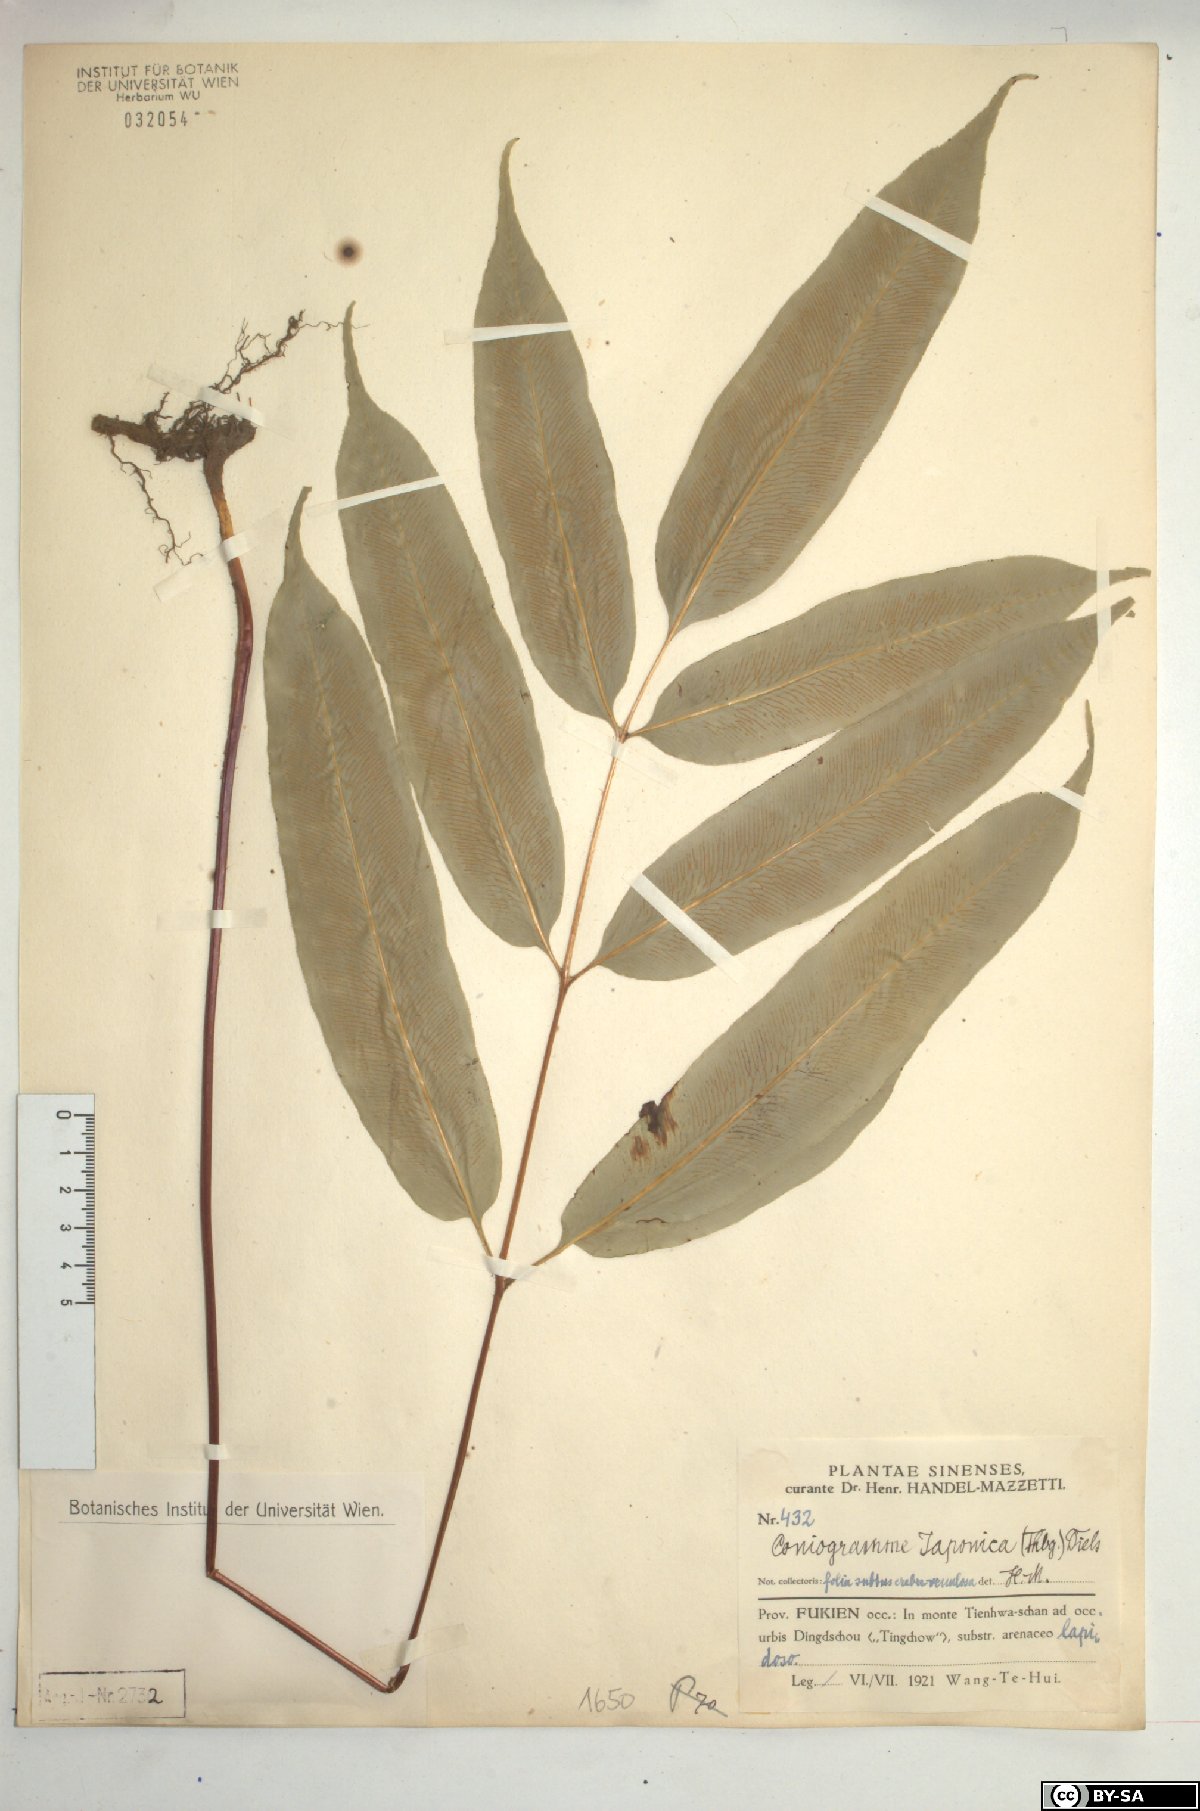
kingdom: Plantae
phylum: Tracheophyta
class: Polypodiopsida
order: Polypodiales
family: Pteridaceae
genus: Coniogramme
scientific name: Coniogramme japonica
